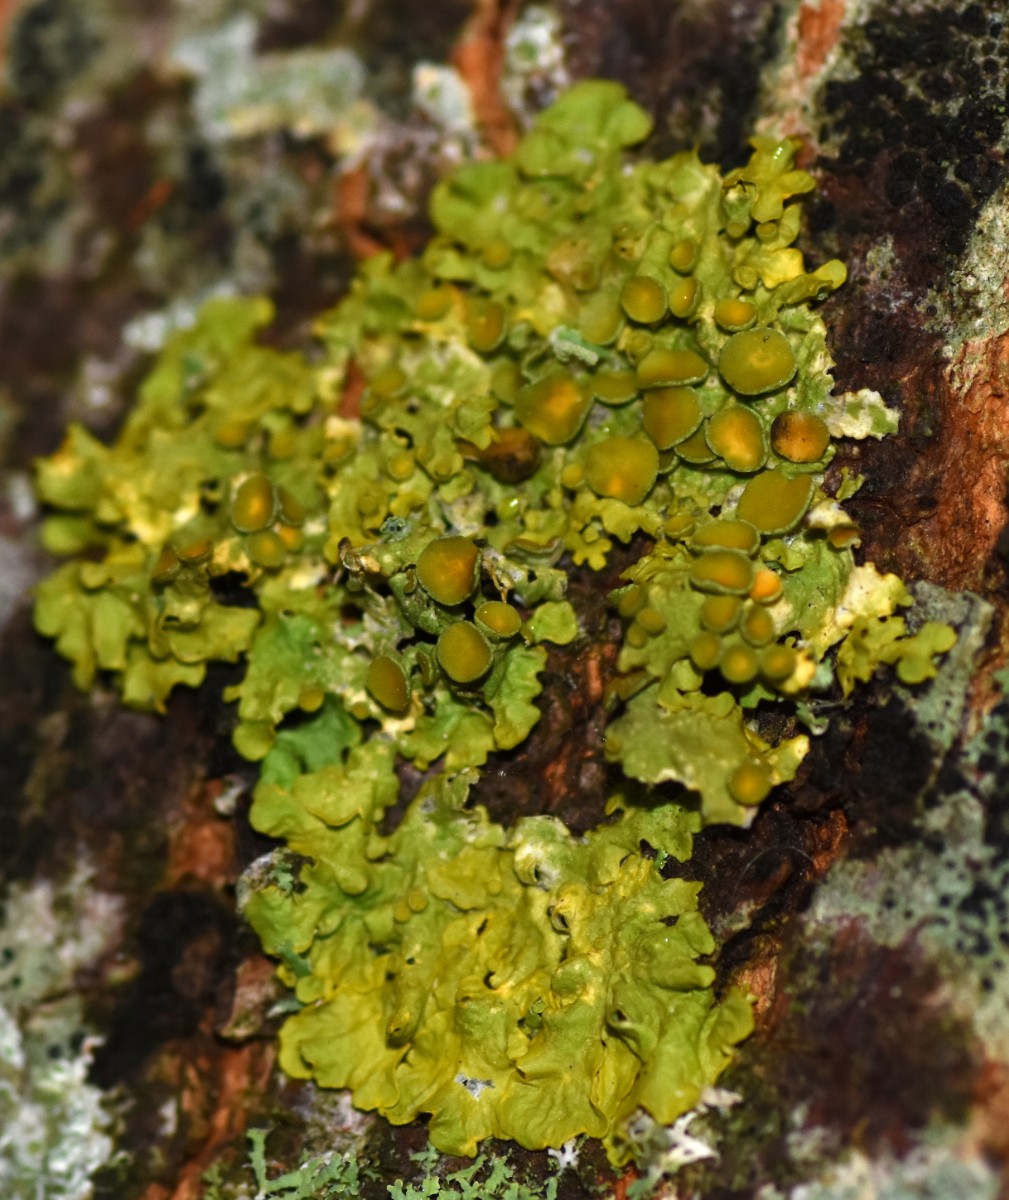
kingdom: Fungi
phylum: Ascomycota
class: Lecanoromycetes
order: Teloschistales
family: Teloschistaceae
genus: Xanthoria
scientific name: Xanthoria parietina
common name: almindelig væggelav
